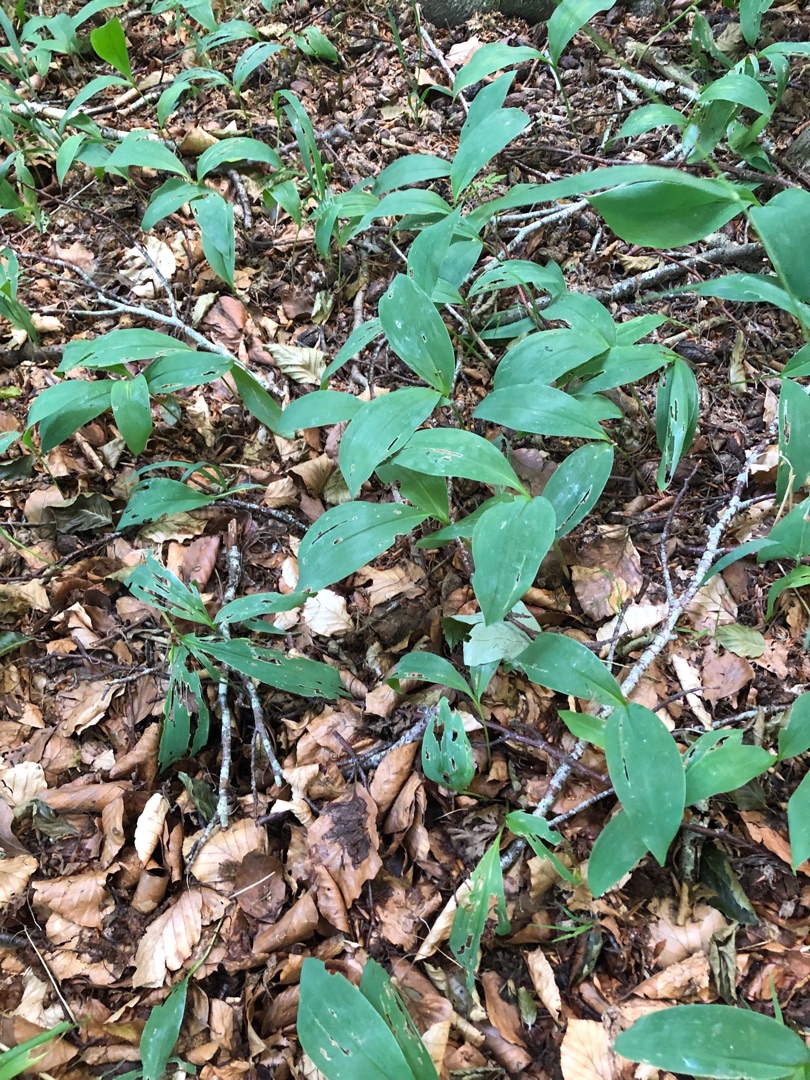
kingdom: Plantae
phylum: Tracheophyta
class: Liliopsida
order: Asparagales
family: Asparagaceae
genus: Convallaria
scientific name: Convallaria majalis
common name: Liljekonval
